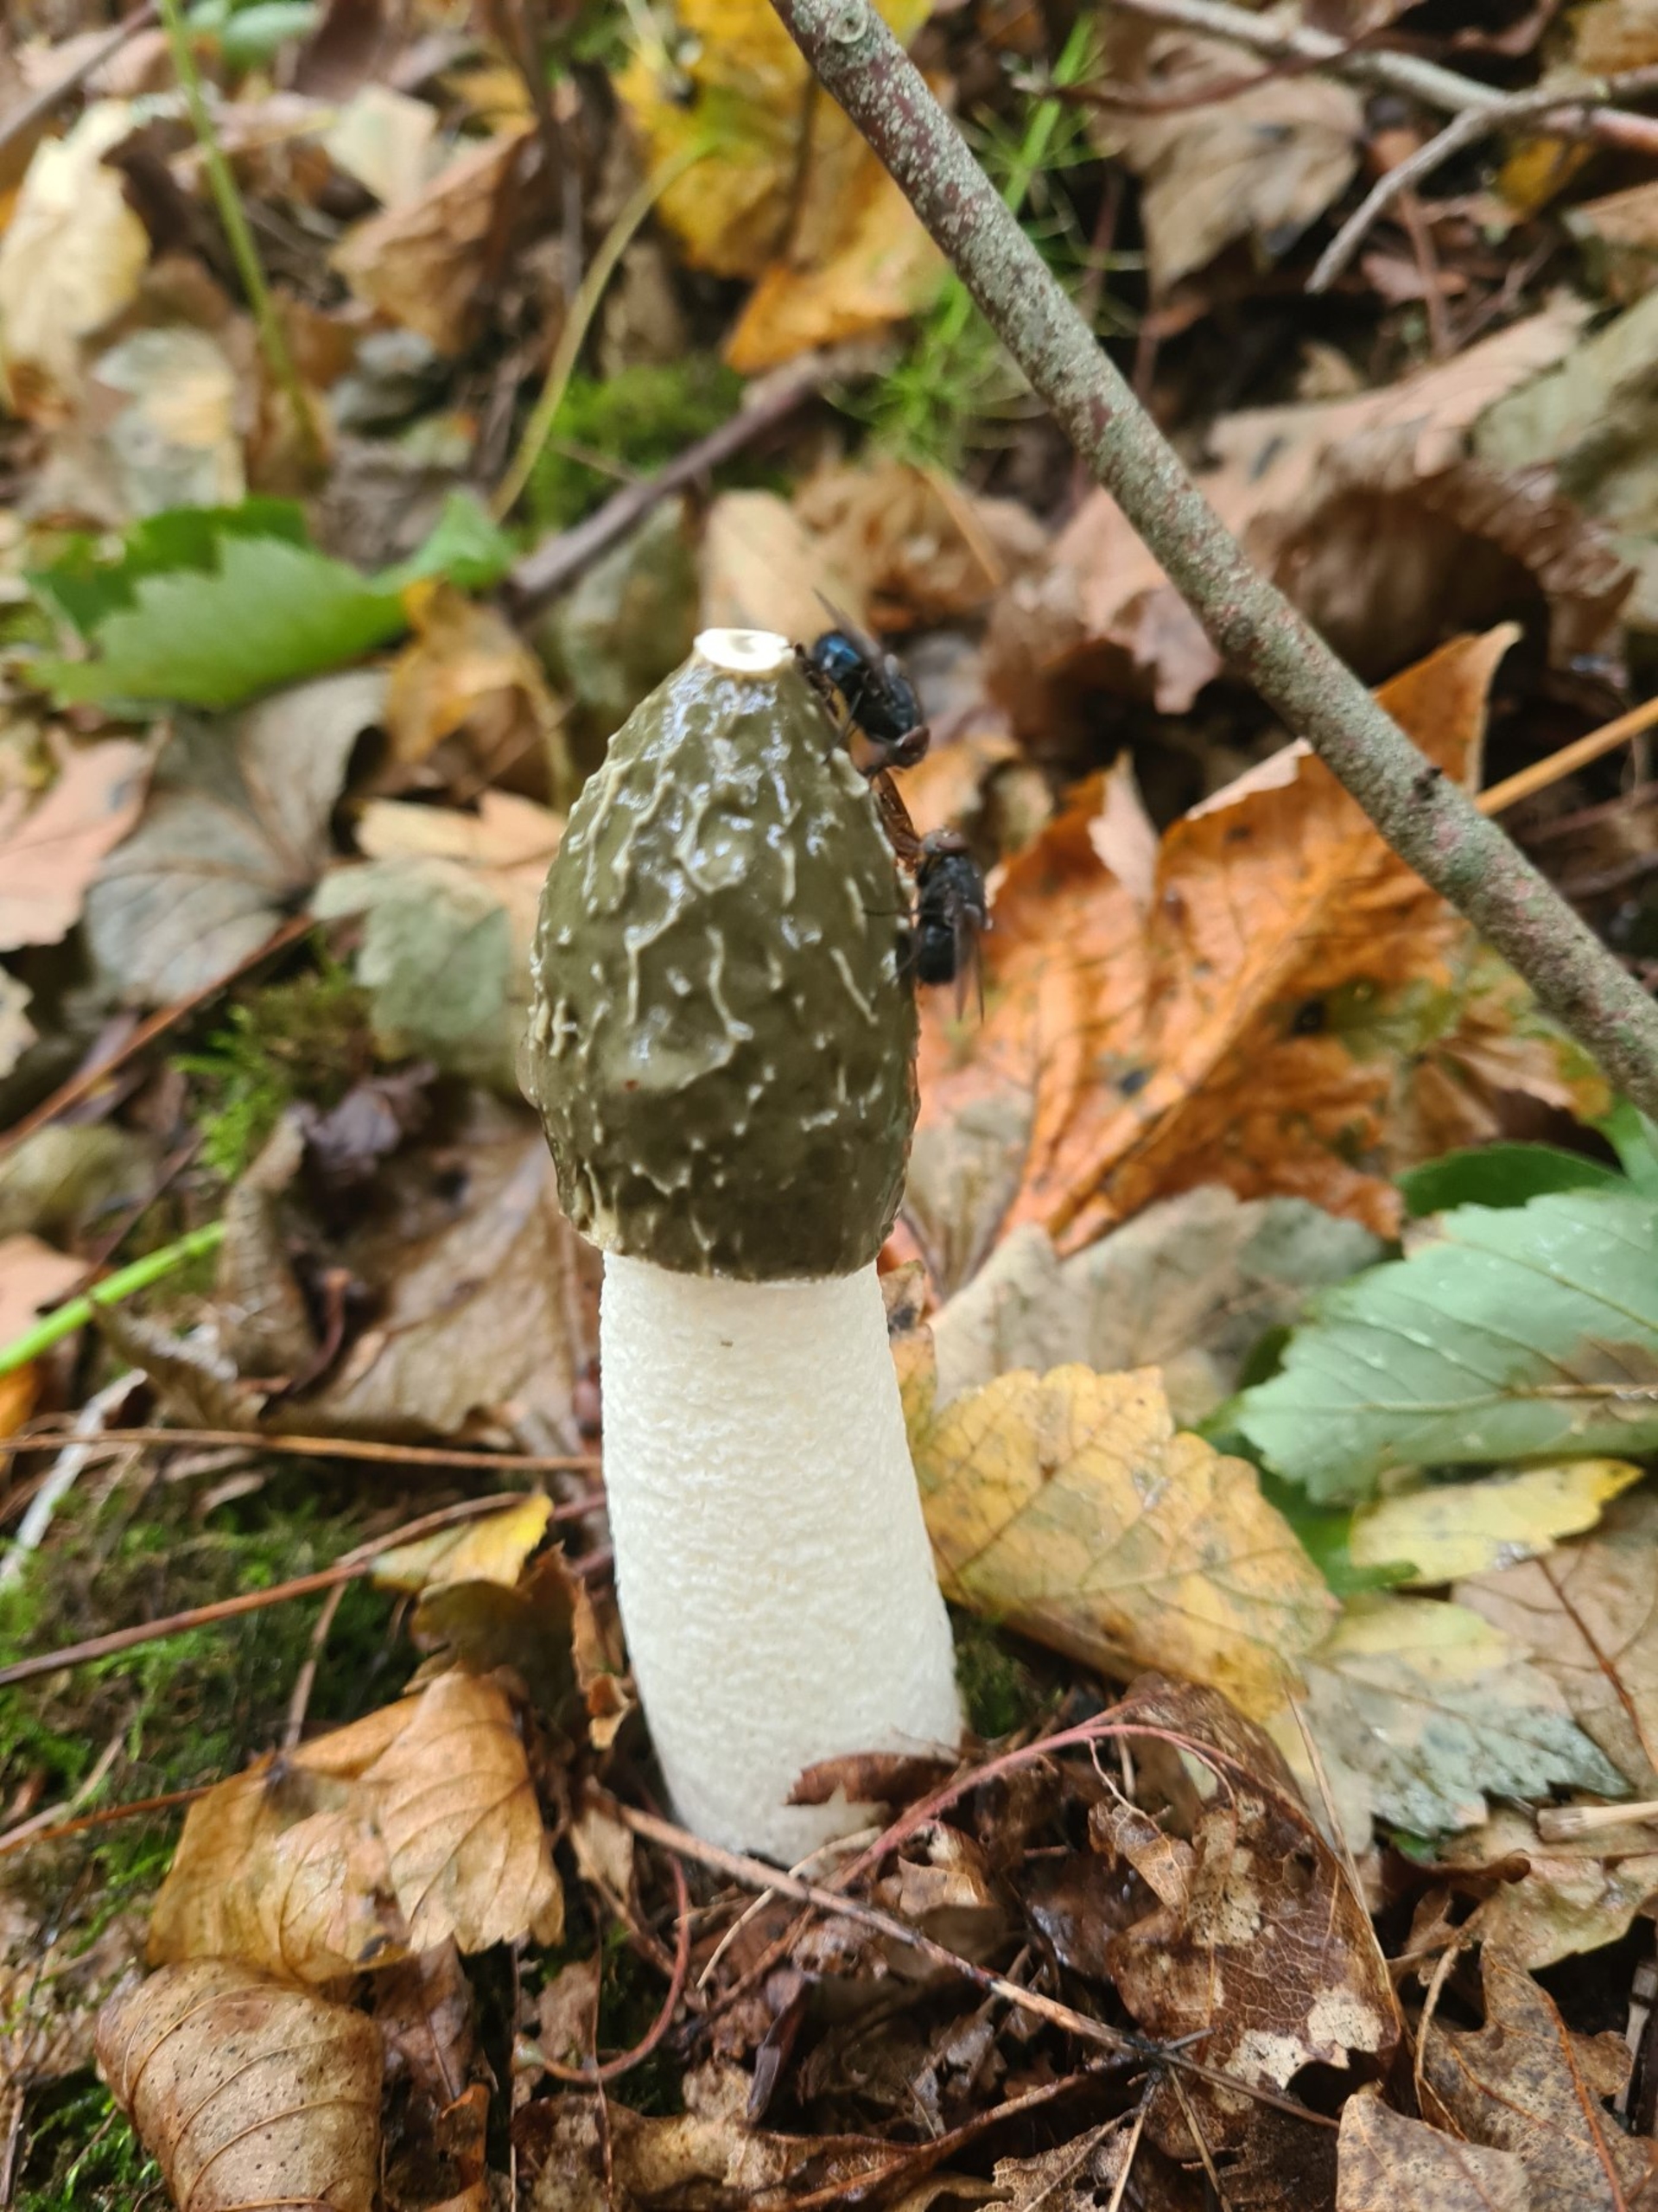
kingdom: Fungi
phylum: Basidiomycota
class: Agaricomycetes
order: Phallales
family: Phallaceae
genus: Phallus
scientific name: Phallus impudicus
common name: Almindelig stinksvamp
